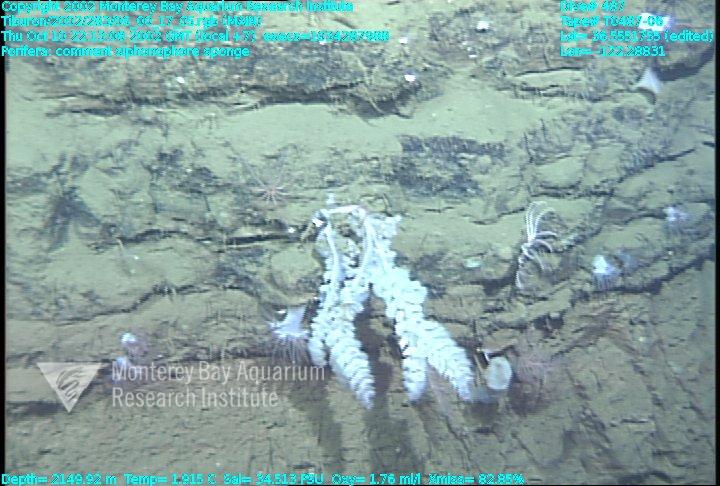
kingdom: Animalia
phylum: Porifera
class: Hexactinellida
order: Sceptrulophora
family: Farreidae
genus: Farrea
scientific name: Farrea truncata
